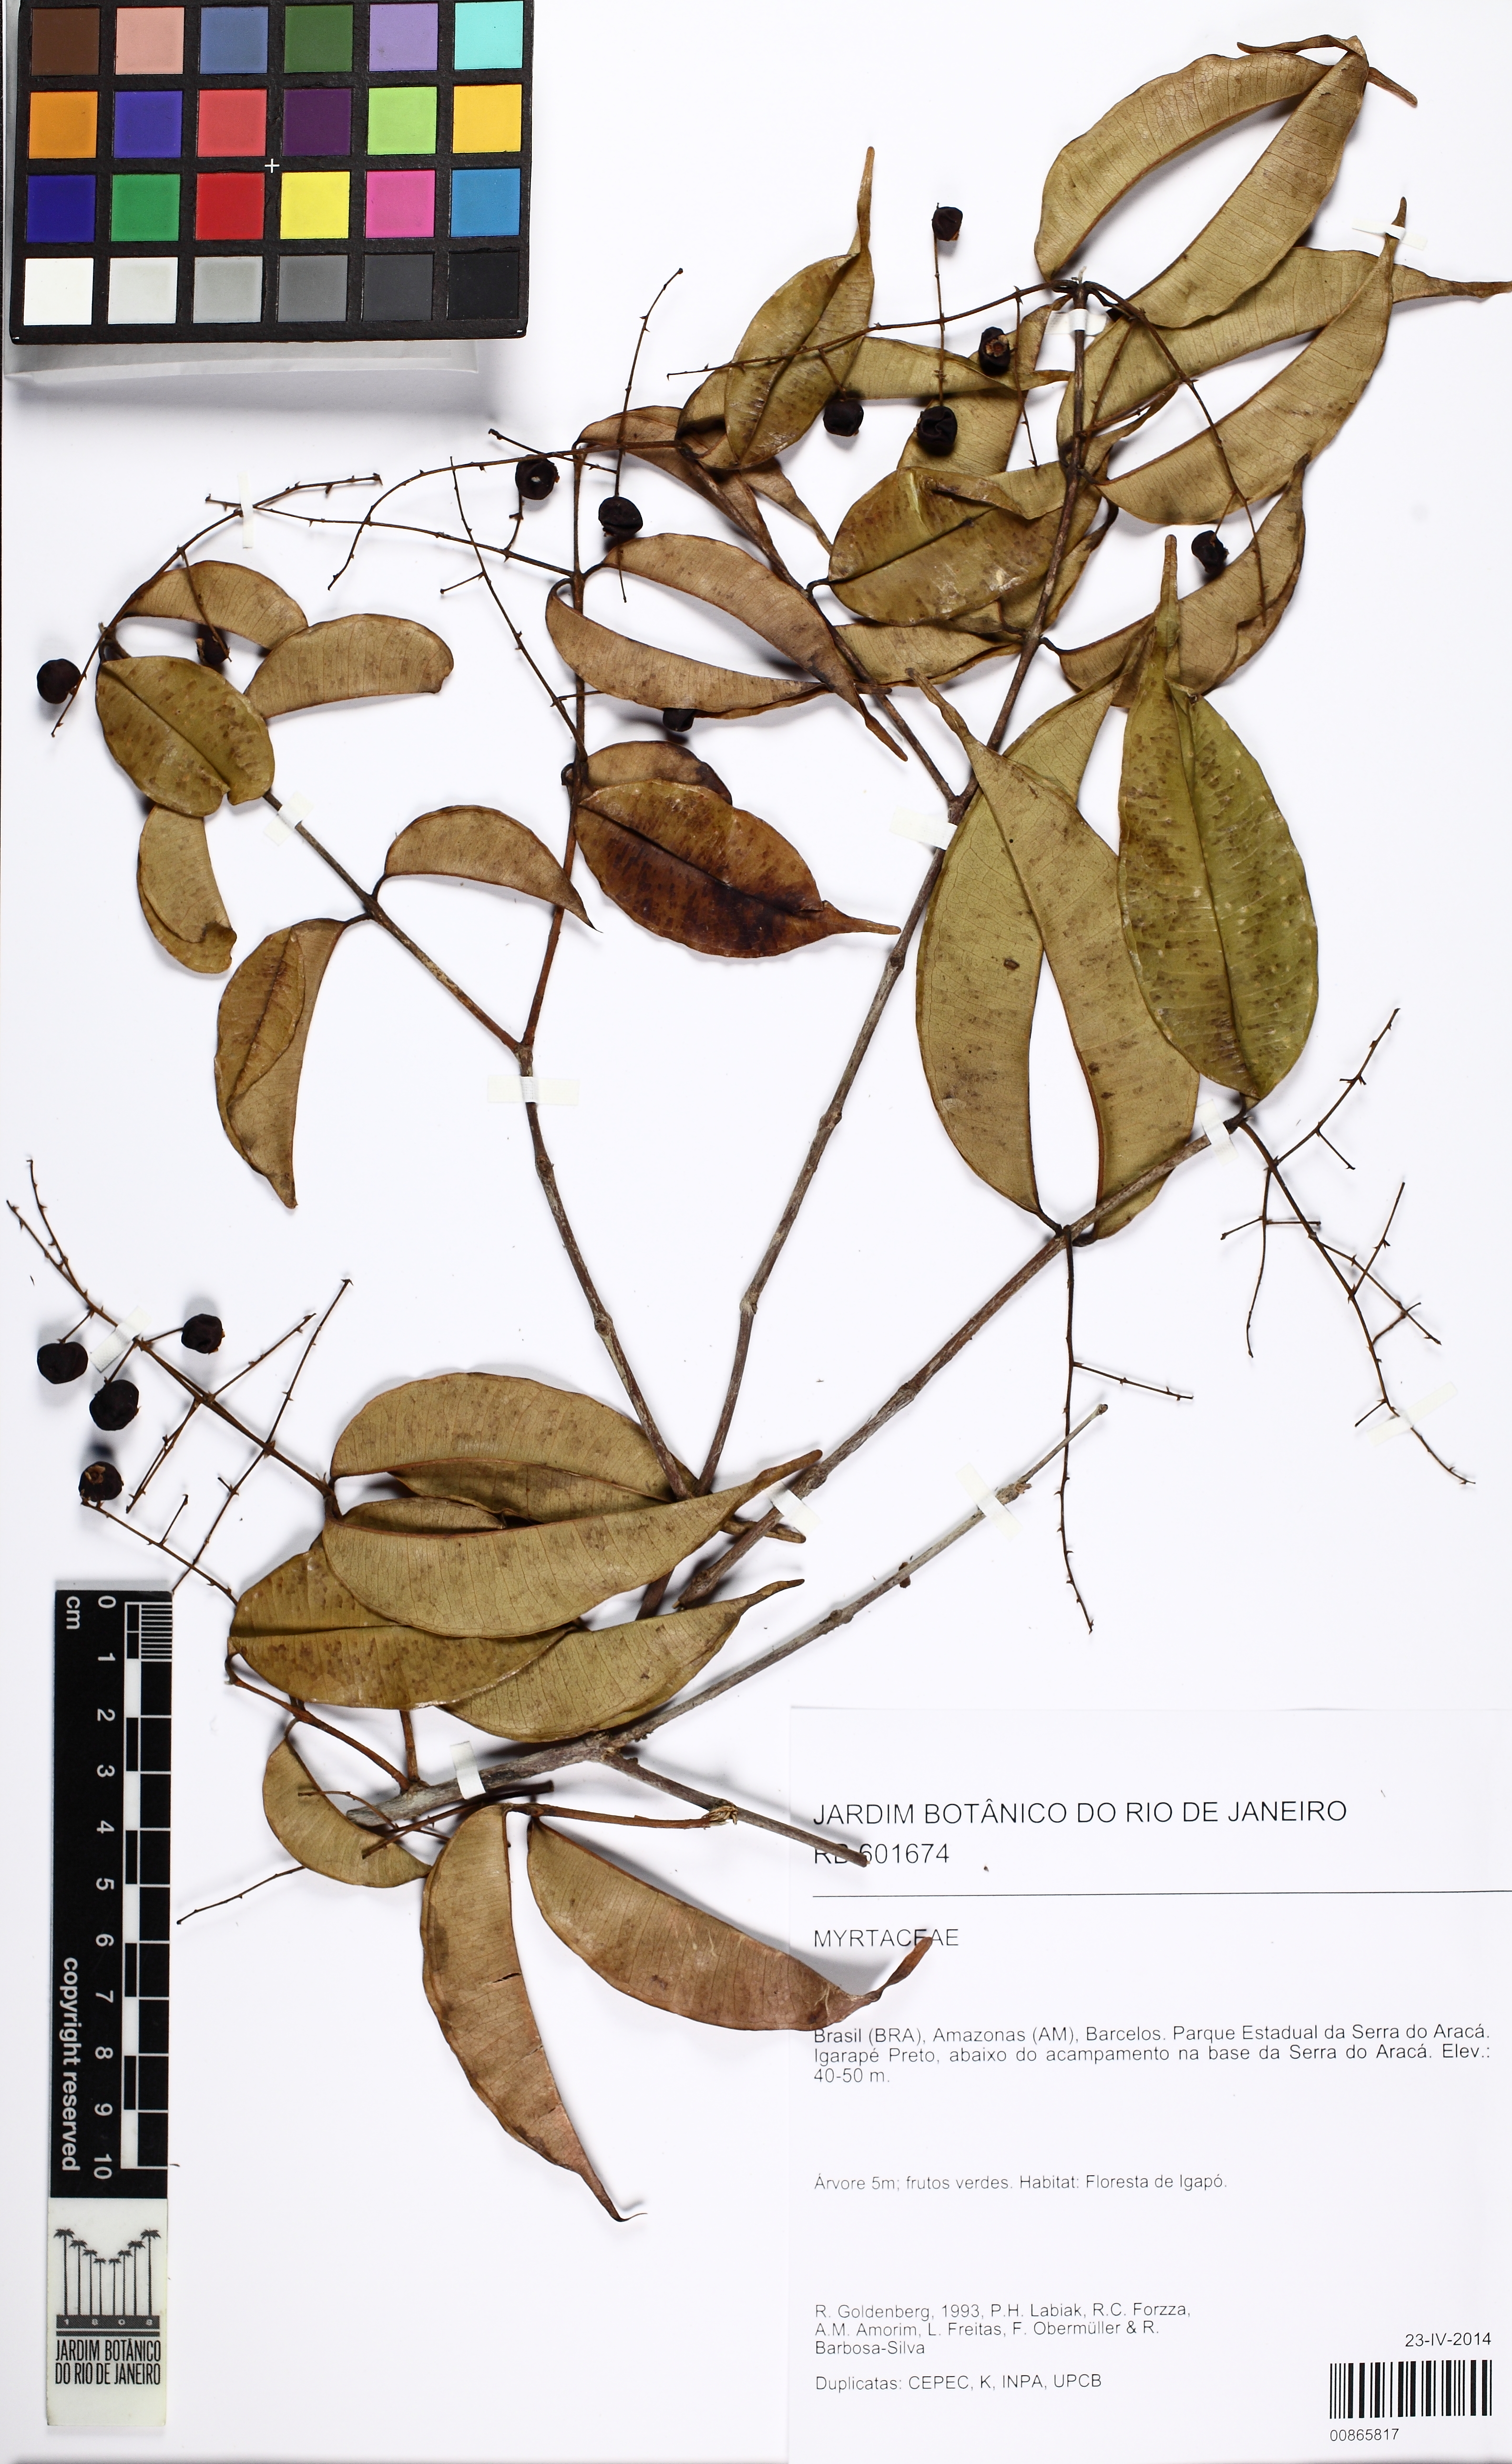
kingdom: Plantae
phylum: Tracheophyta
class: Magnoliopsida
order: Myrtales
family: Myrtaceae
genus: Myrcia
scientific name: Myrcia inaequiloba
